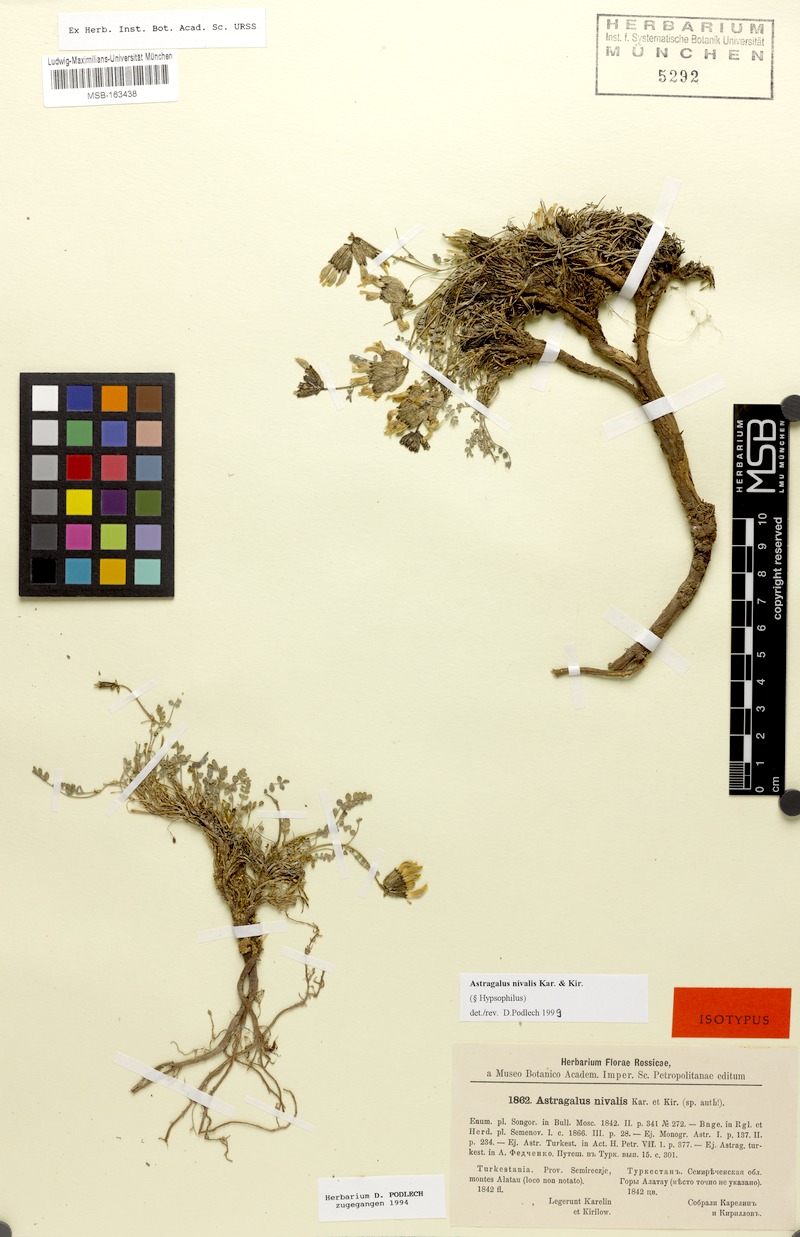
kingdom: Plantae
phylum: Tracheophyta
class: Magnoliopsida
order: Fabales
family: Fabaceae
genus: Astragalus
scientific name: Astragalus nivalis
